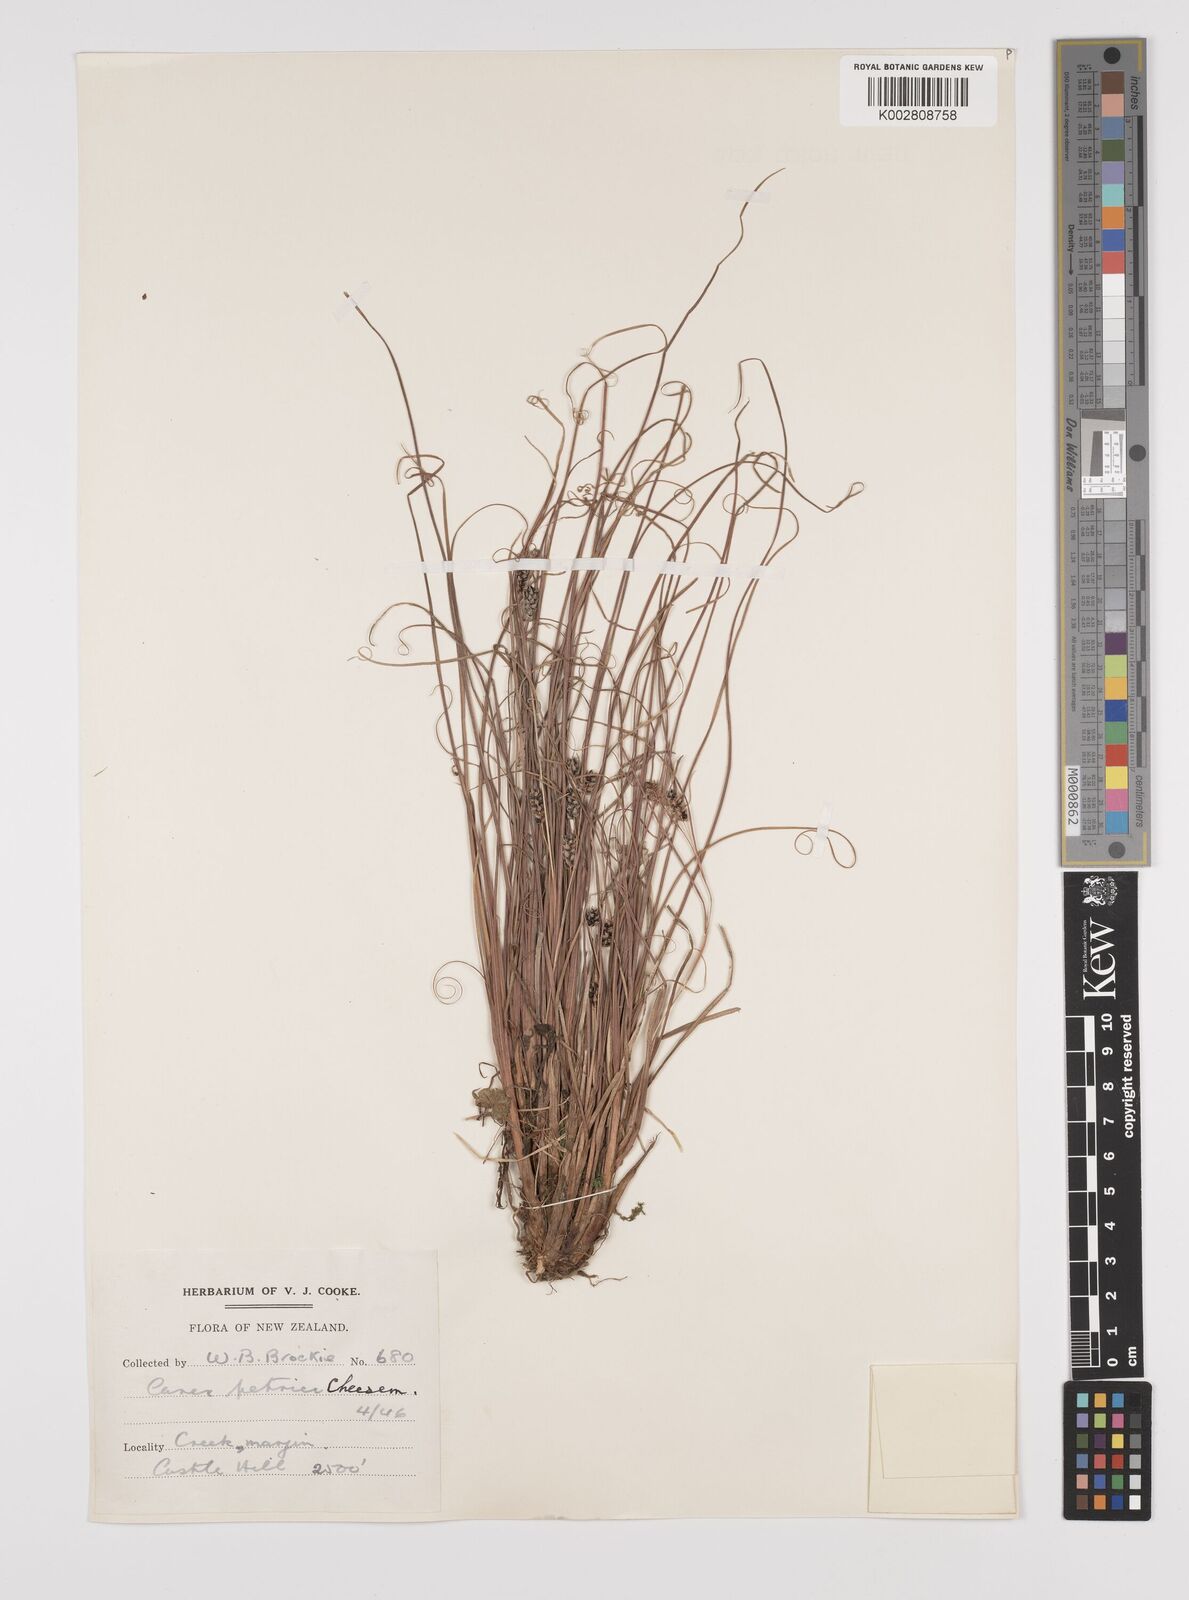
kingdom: Plantae
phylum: Tracheophyta
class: Liliopsida
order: Poales
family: Cyperaceae
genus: Carex
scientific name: Carex petriei
